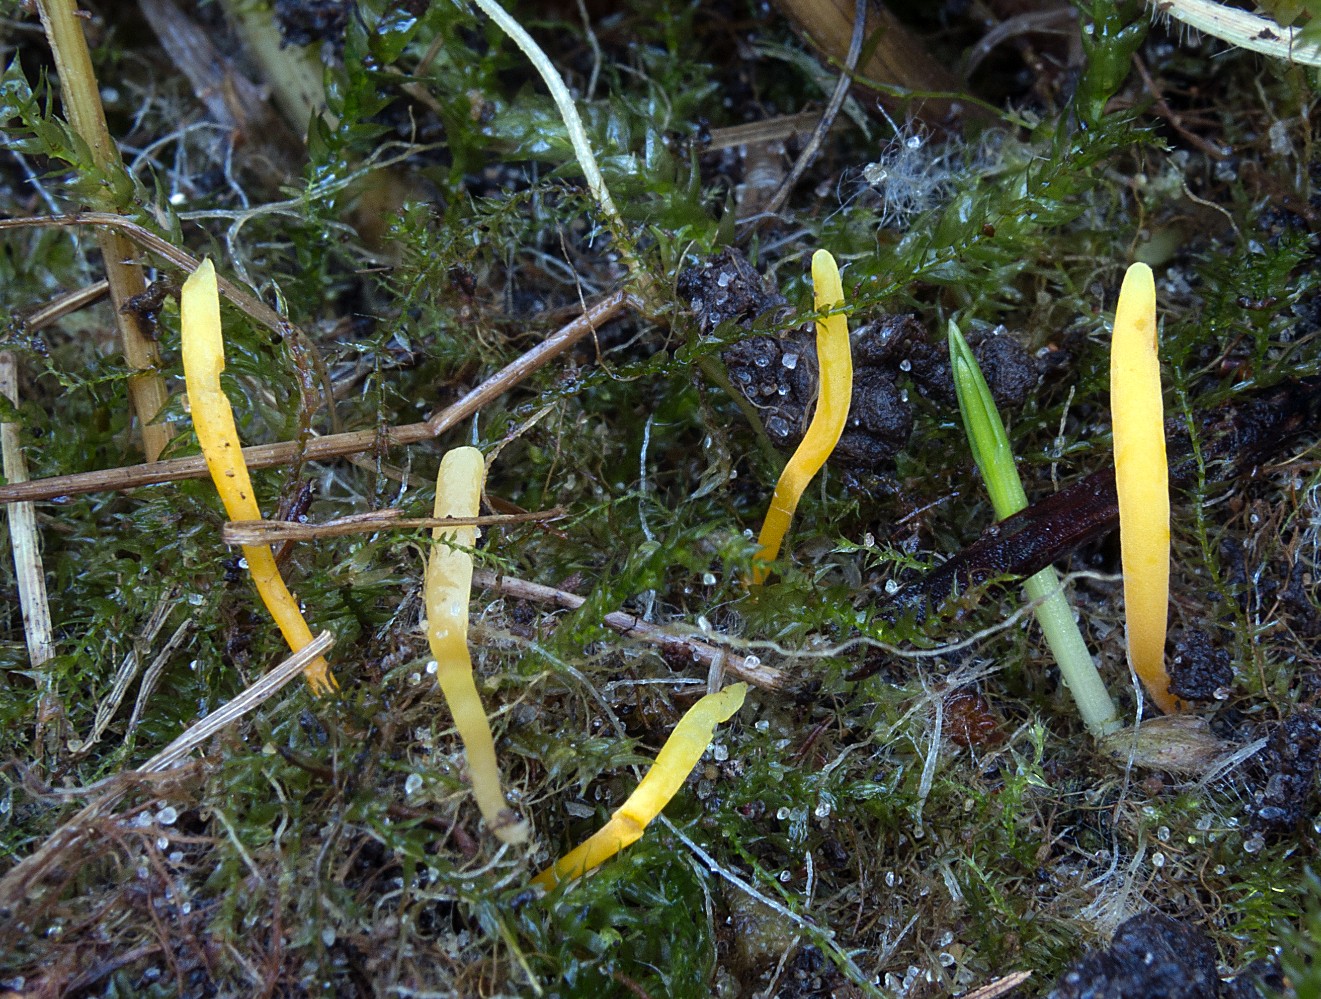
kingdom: Fungi
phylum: Basidiomycota
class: Agaricomycetes
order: Agaricales
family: Clavariaceae
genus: Clavulinopsis
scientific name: Clavulinopsis laeticolor
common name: flamme-køllesvamp
